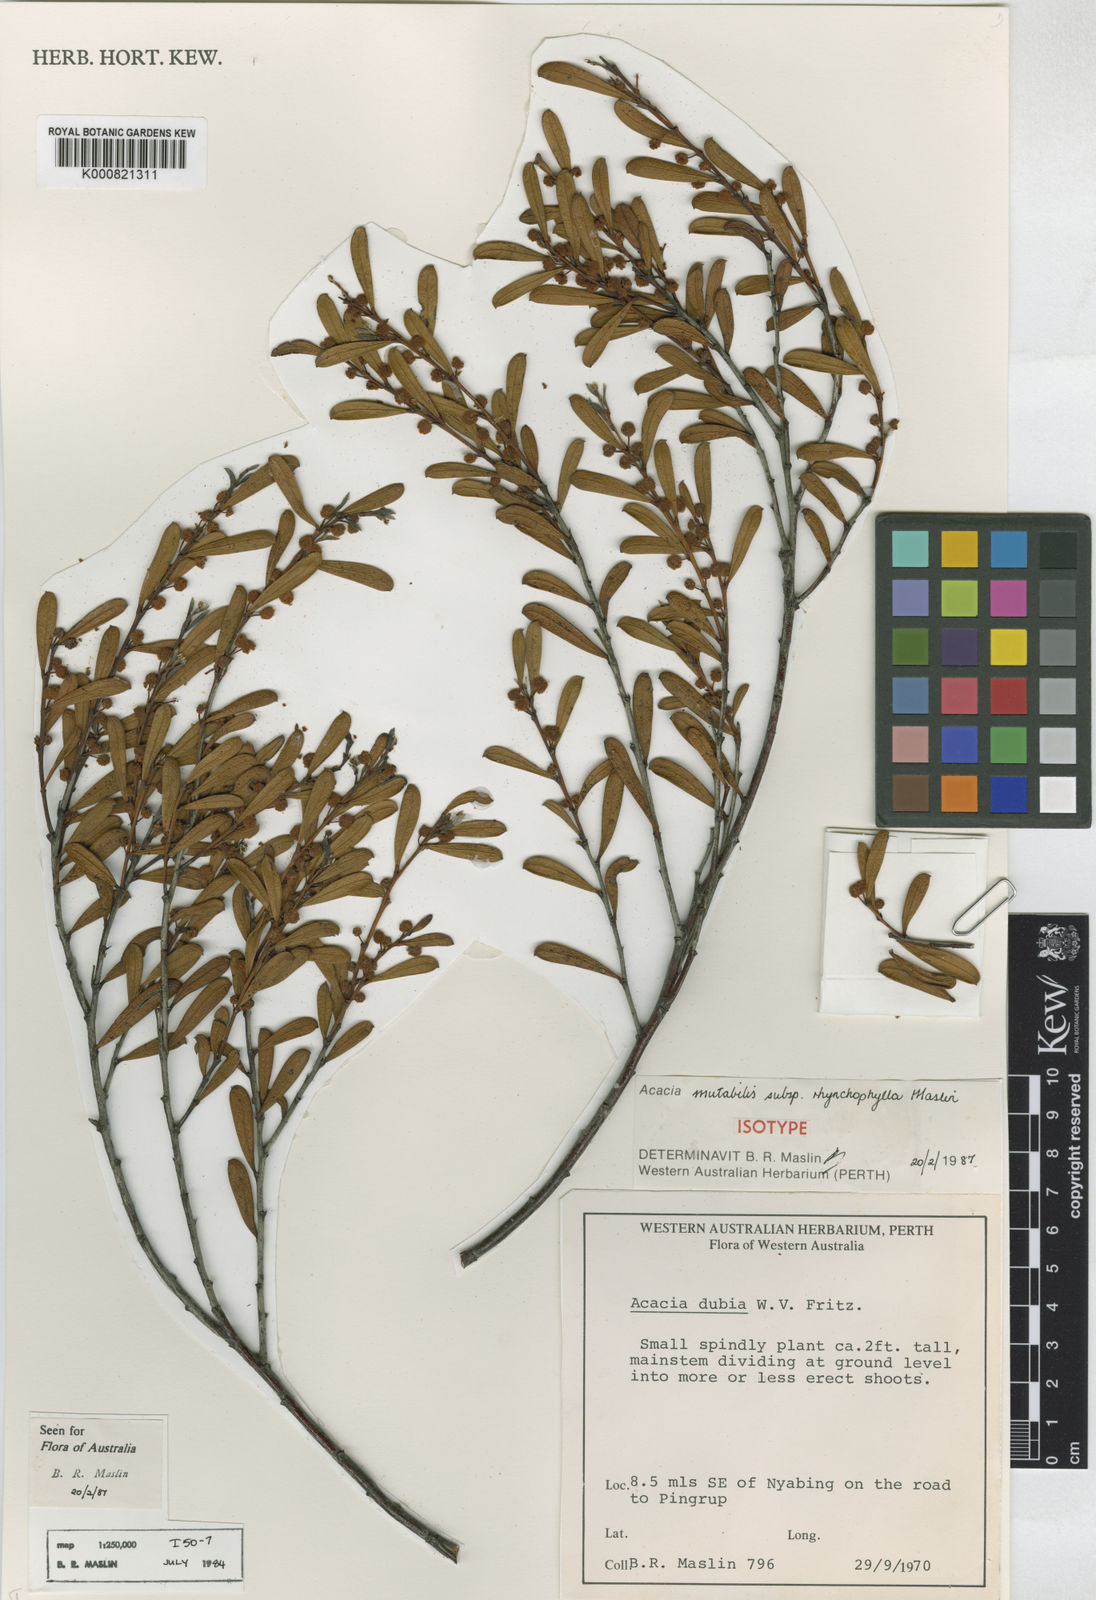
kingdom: Plantae
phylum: Tracheophyta
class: Magnoliopsida
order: Fabales
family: Fabaceae
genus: Acacia
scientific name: Acacia mutabilis
